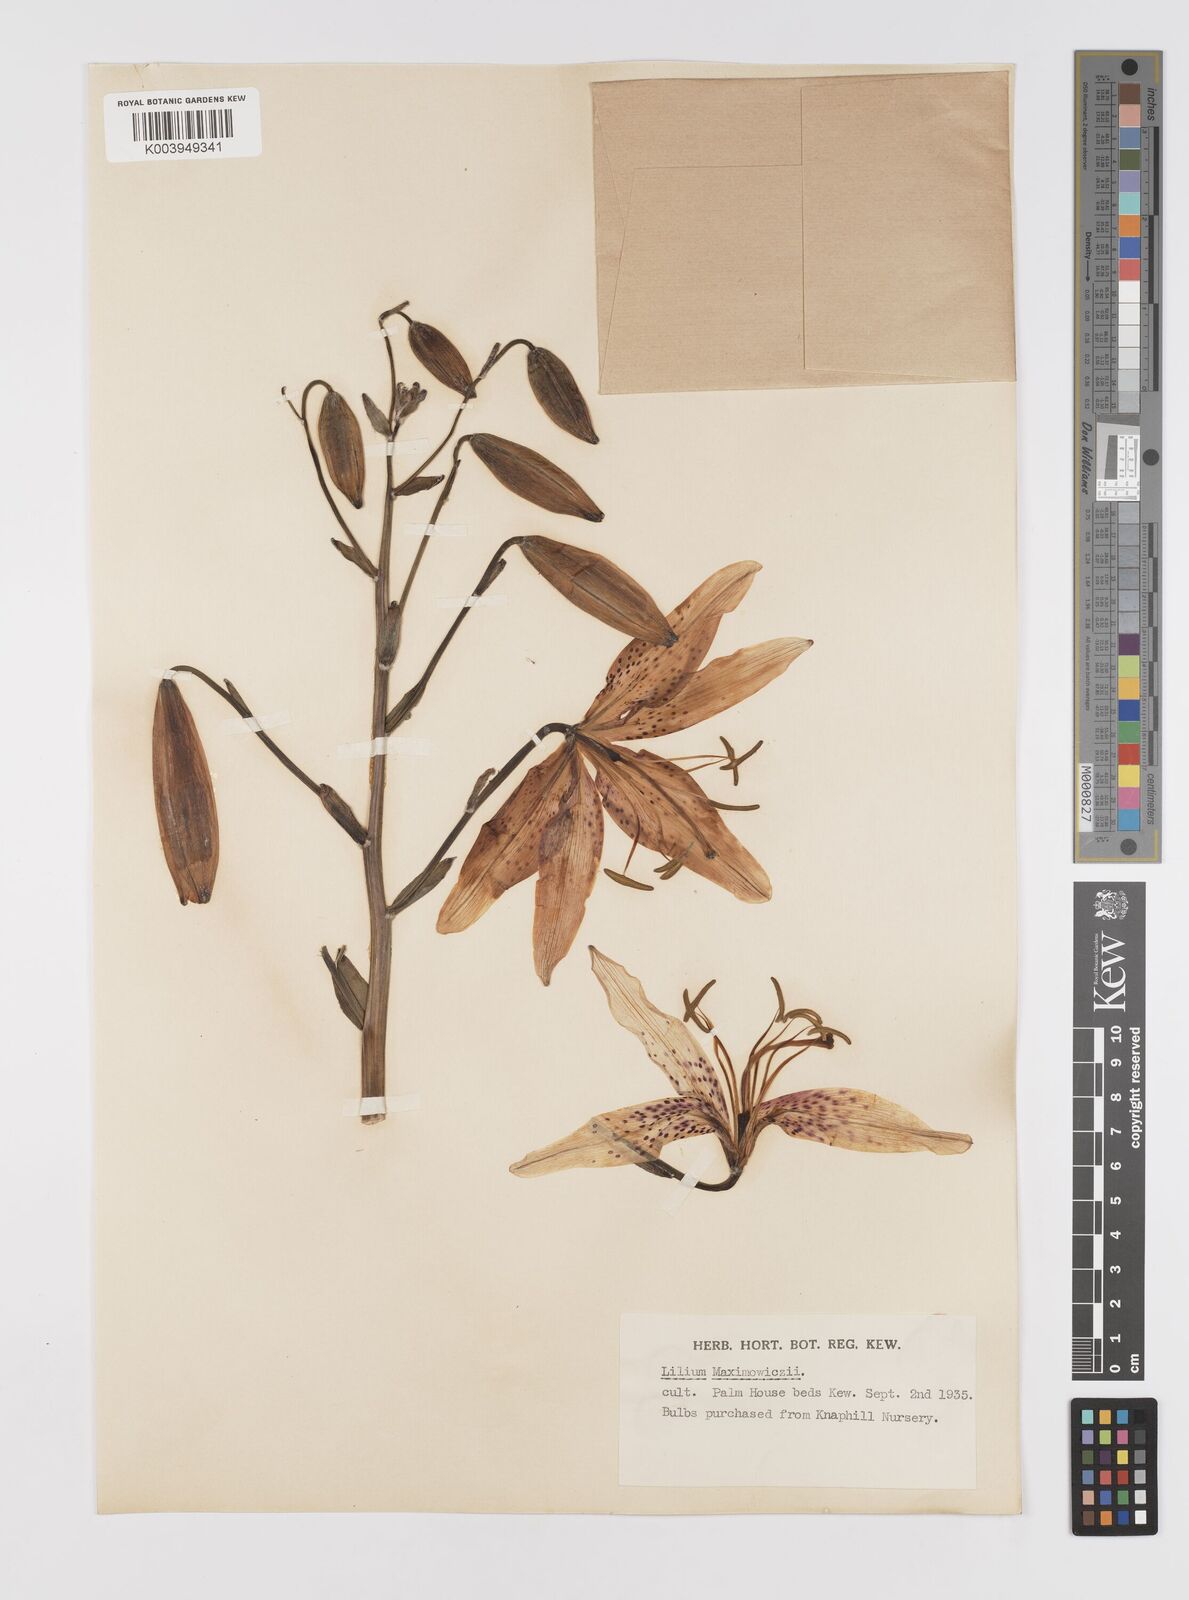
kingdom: Plantae
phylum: Tracheophyta
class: Liliopsida
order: Liliales
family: Liliaceae
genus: Lilium
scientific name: Lilium leichtlinii
